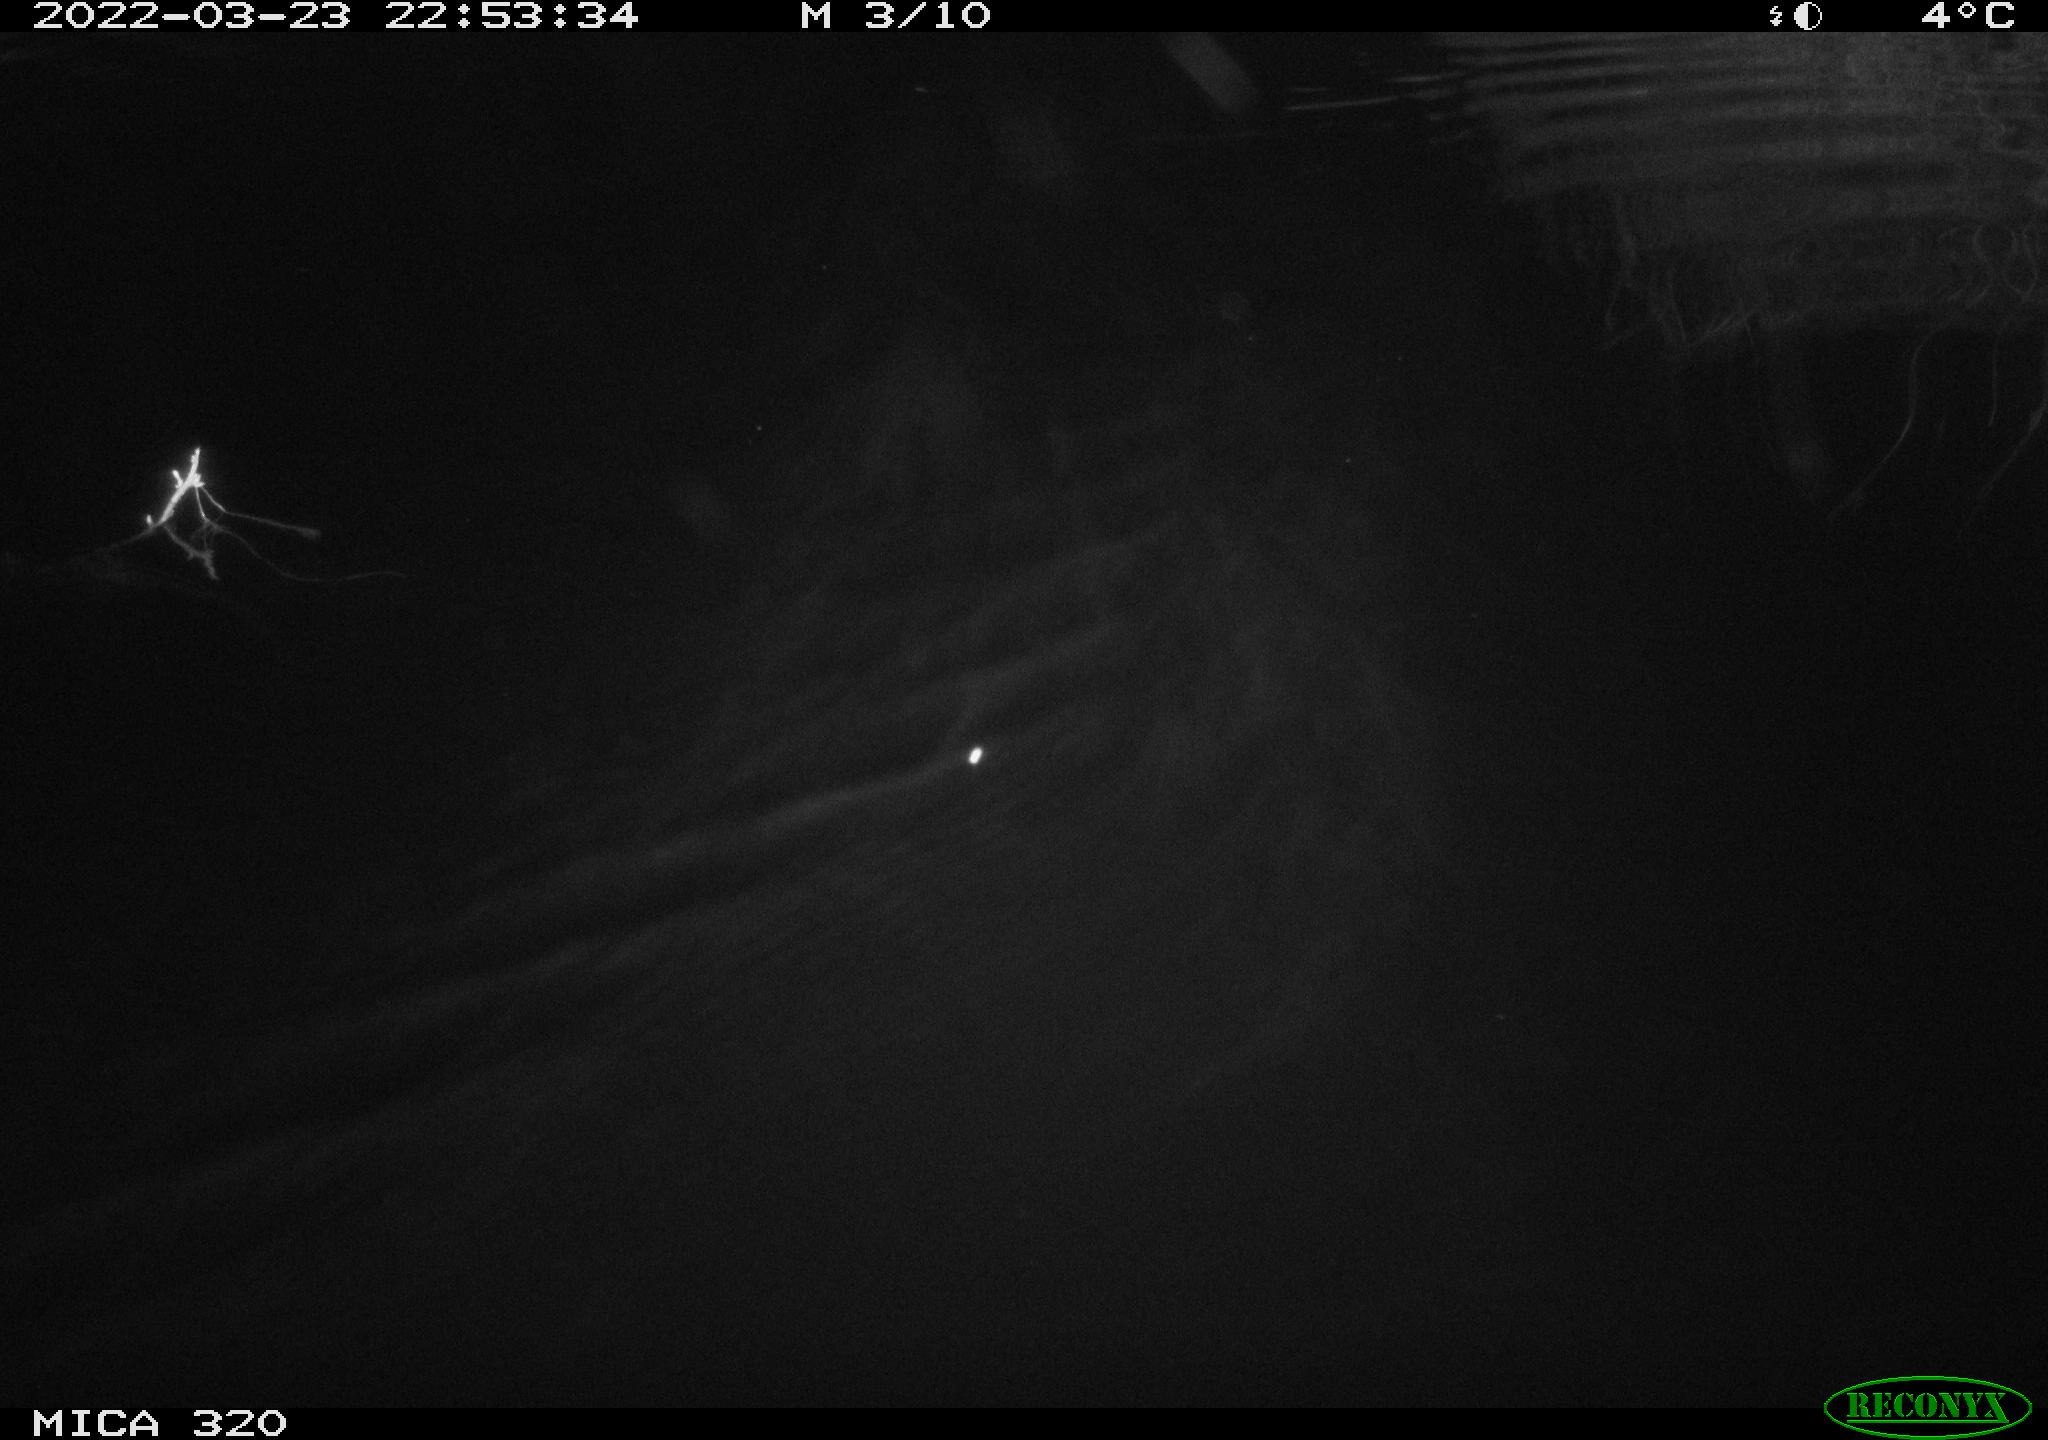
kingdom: Animalia
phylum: Chordata
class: Mammalia
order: Rodentia
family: Muridae
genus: Rattus
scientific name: Rattus norvegicus
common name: Brown rat
